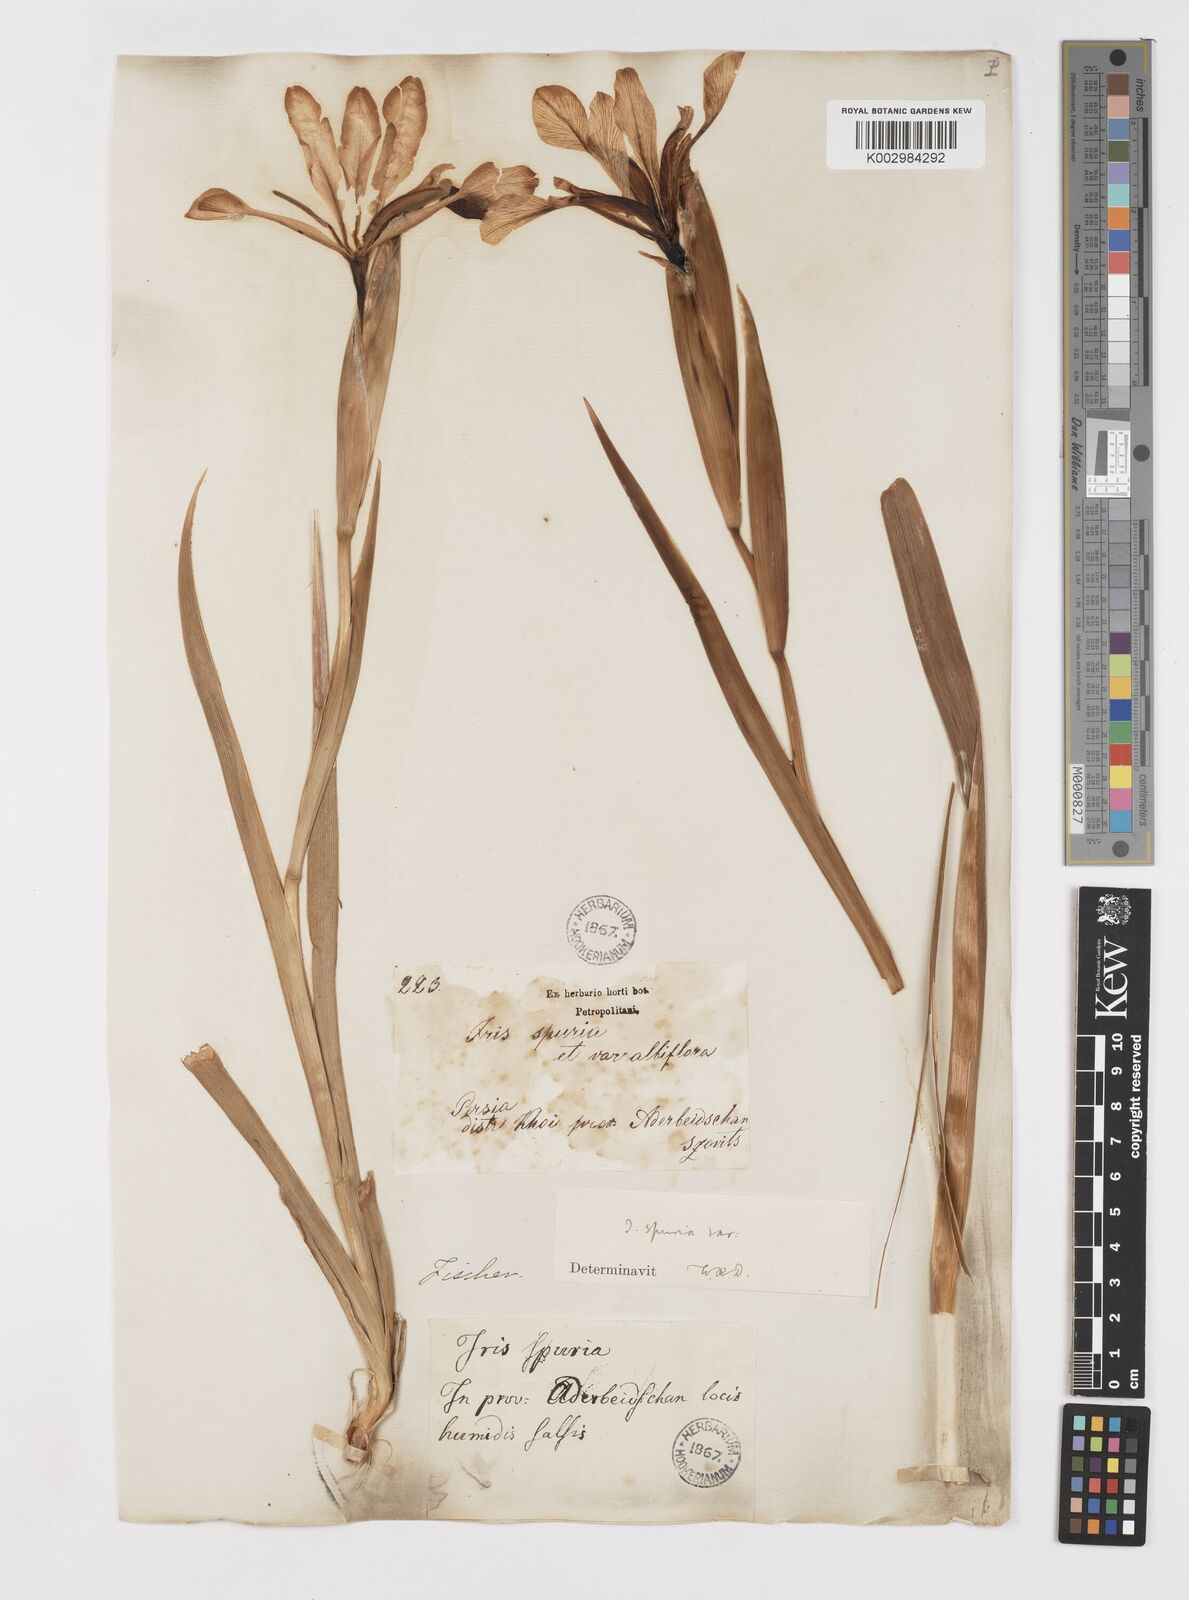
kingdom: Plantae
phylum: Tracheophyta
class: Liliopsida
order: Asparagales
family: Iridaceae
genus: Iris
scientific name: Iris spuria
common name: Blue iris
